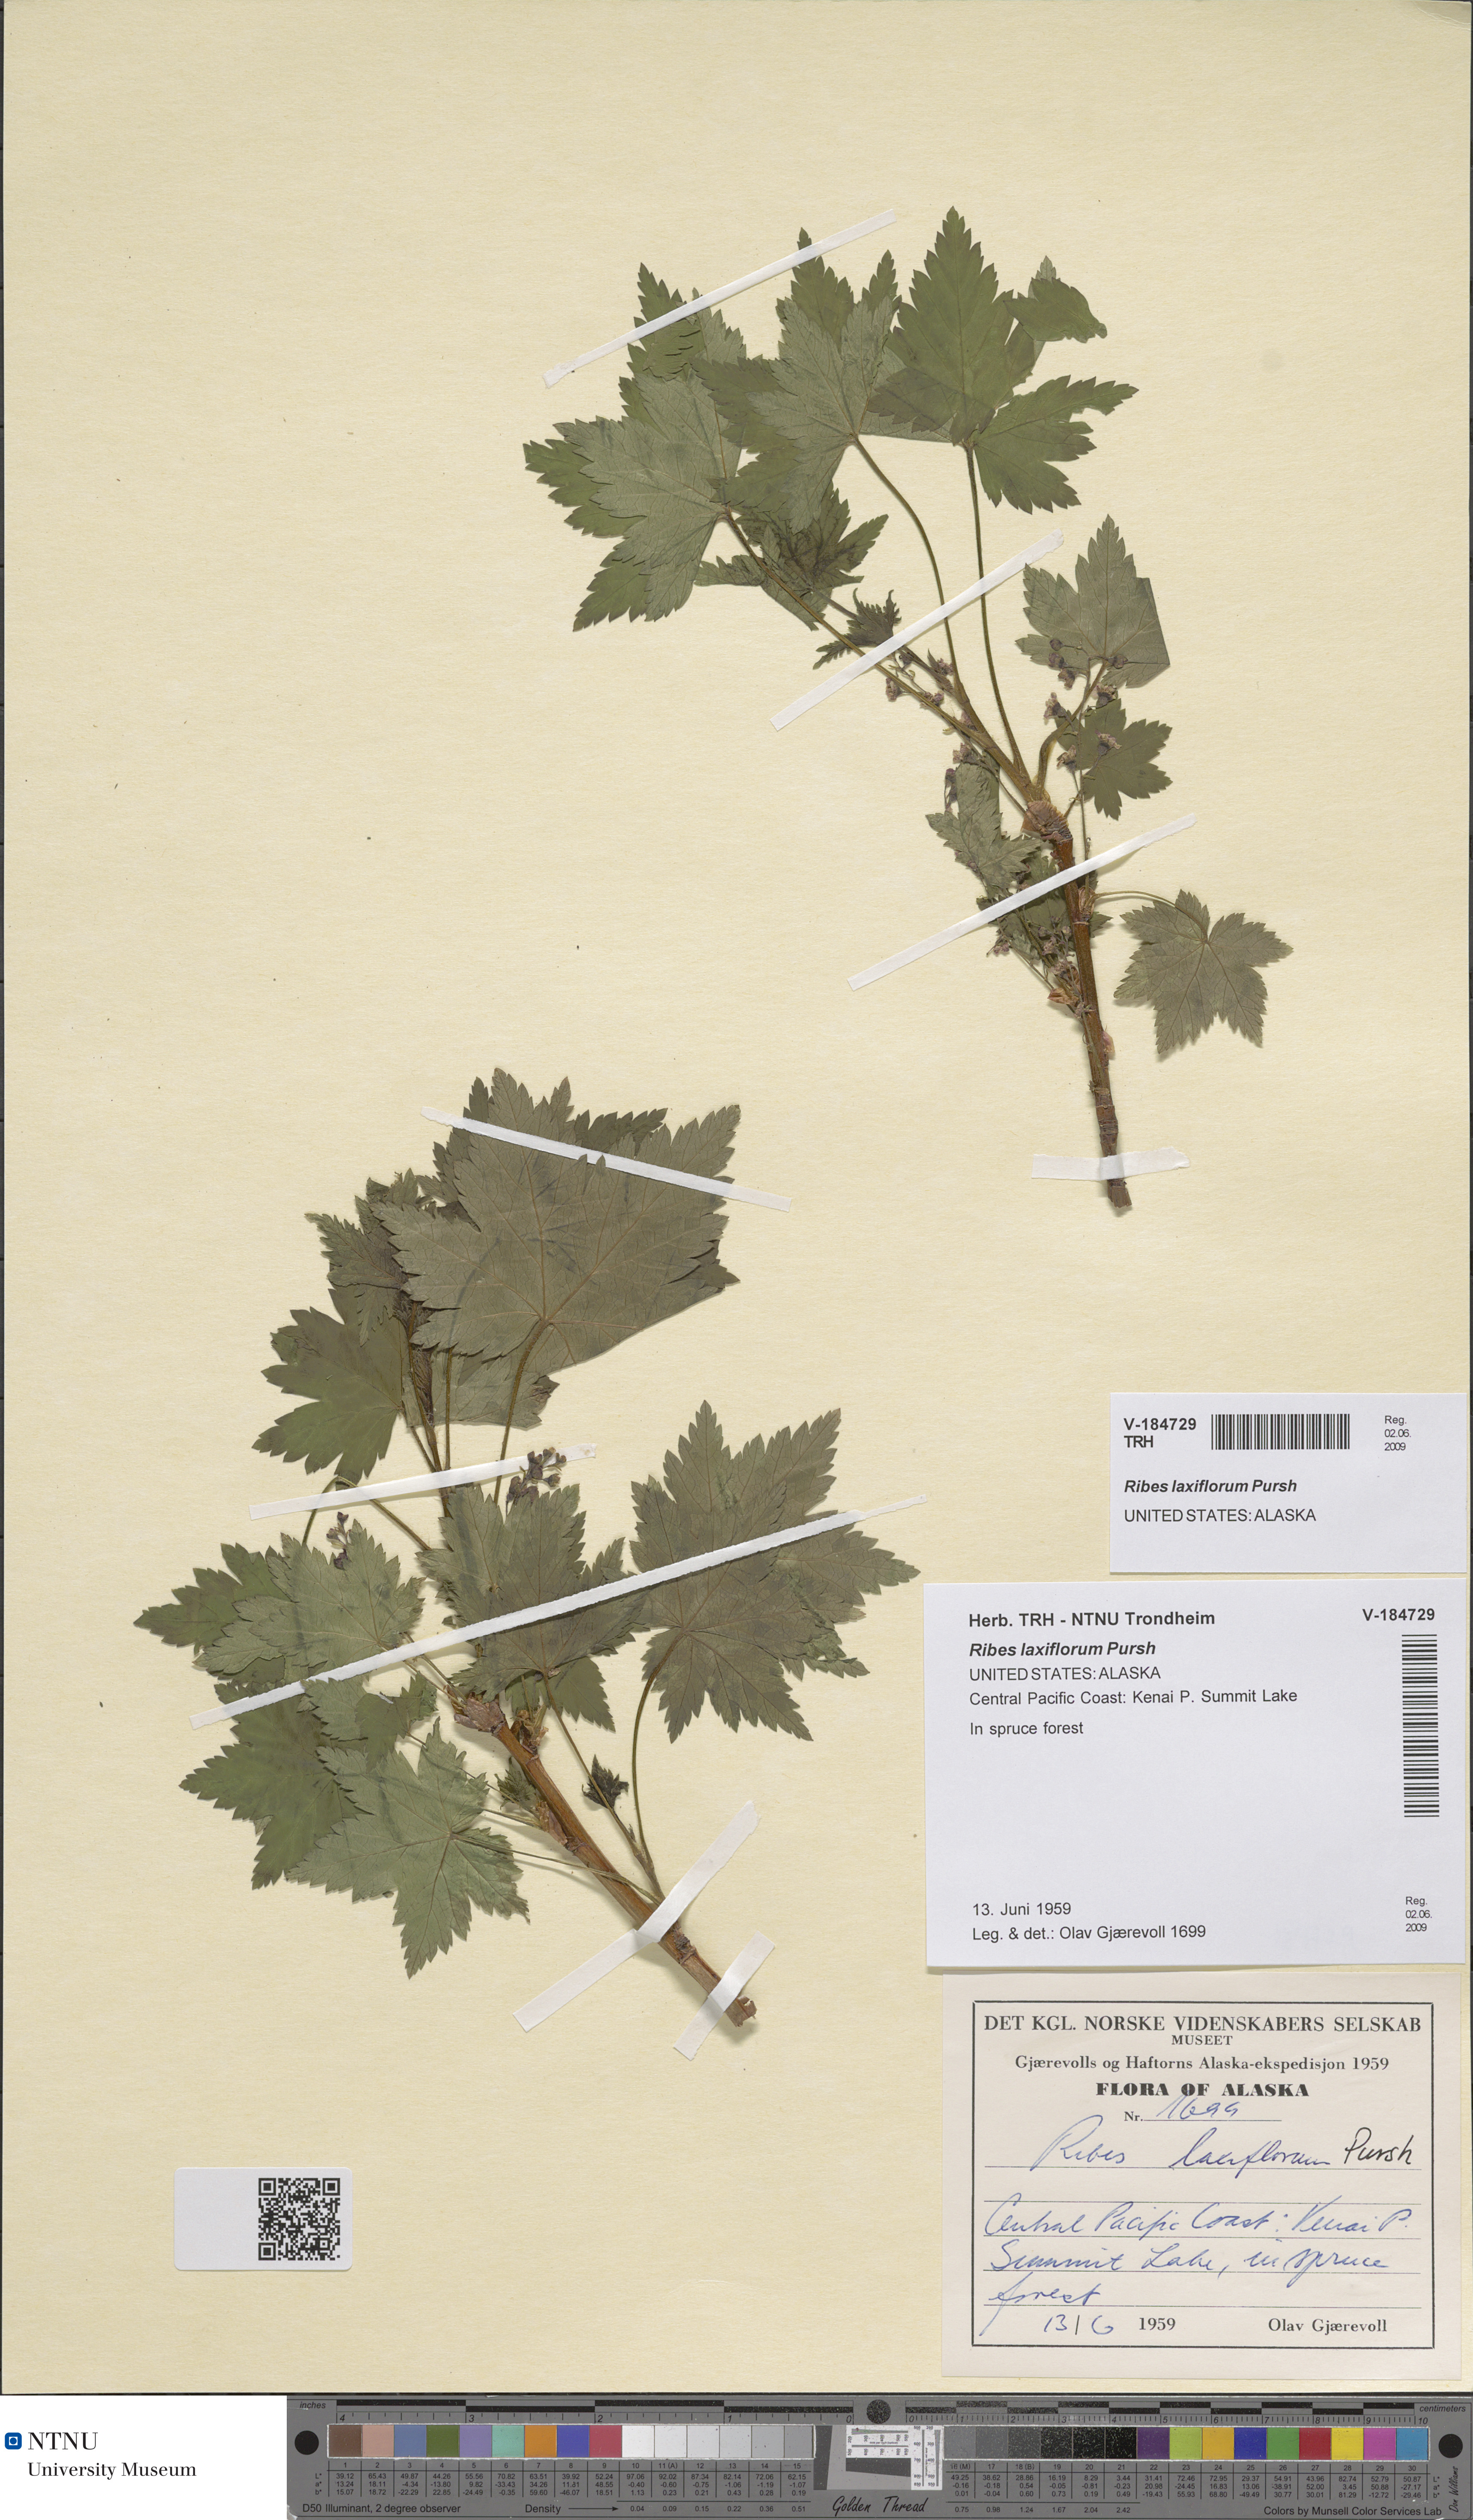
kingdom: Plantae
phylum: Tracheophyta
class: Magnoliopsida
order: Saxifragales
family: Grossulariaceae
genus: Ribes
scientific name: Ribes laxiflorum
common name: Spreading currant
